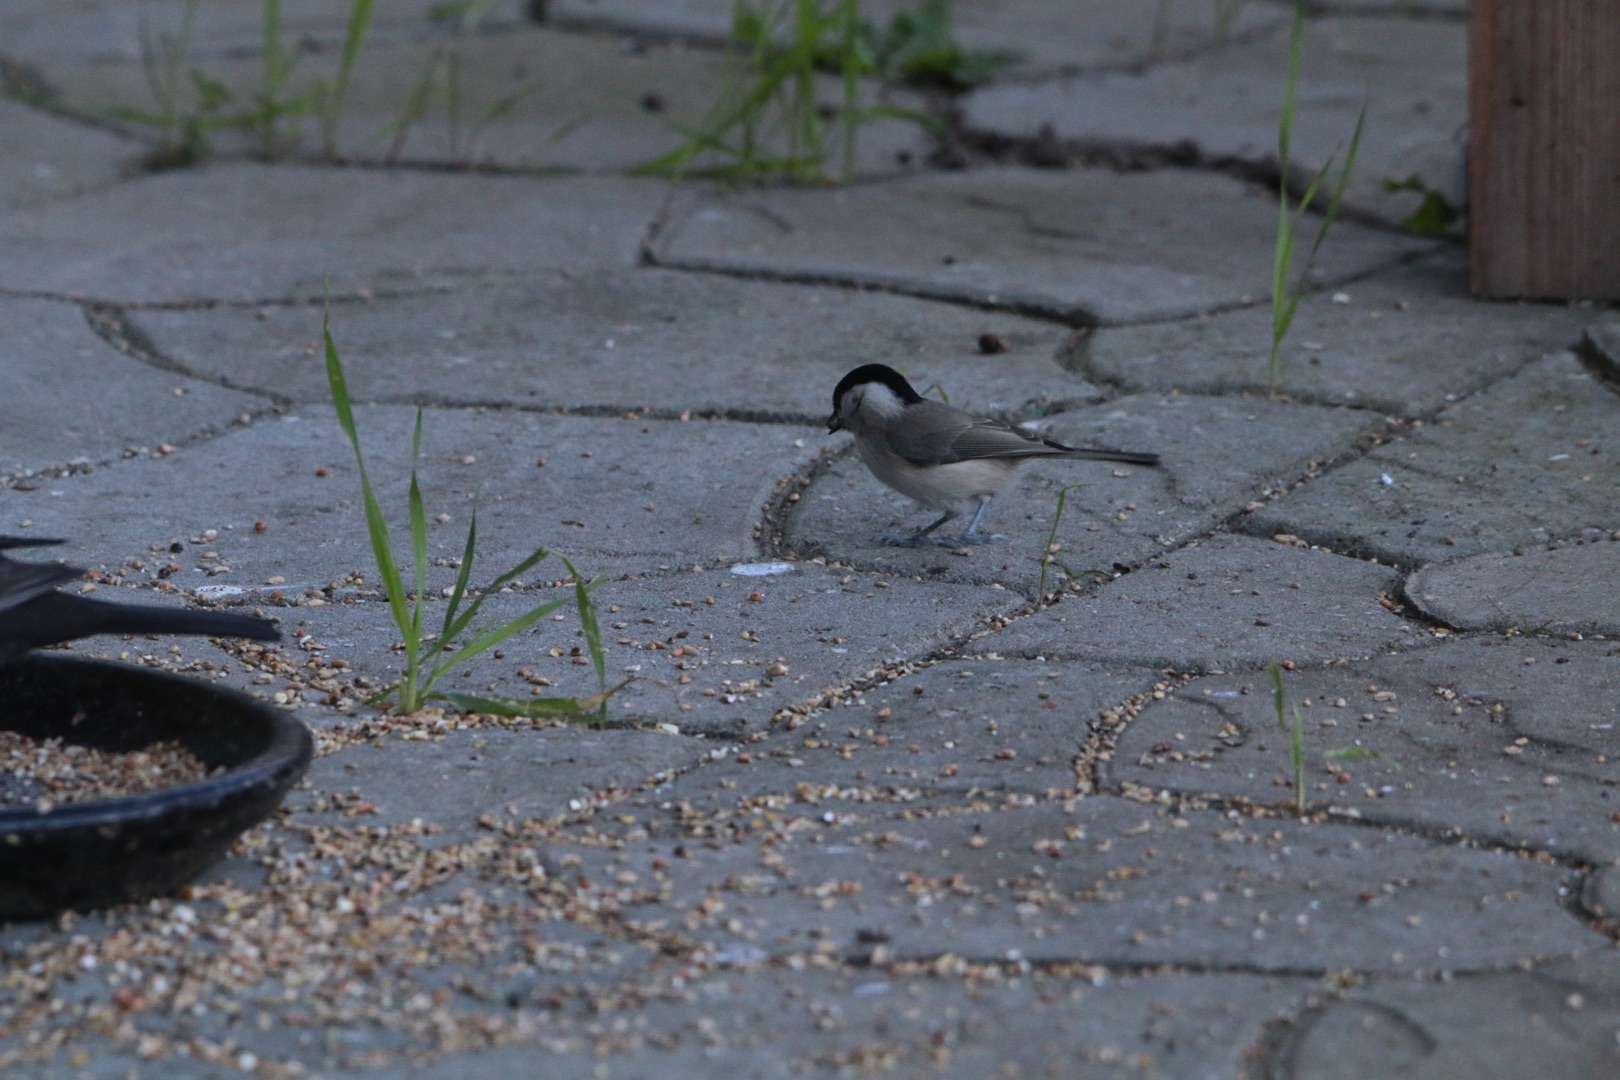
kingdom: Animalia
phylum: Chordata
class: Aves
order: Passeriformes
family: Paridae
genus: Poecile
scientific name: Poecile palustris
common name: Sumpmejse
